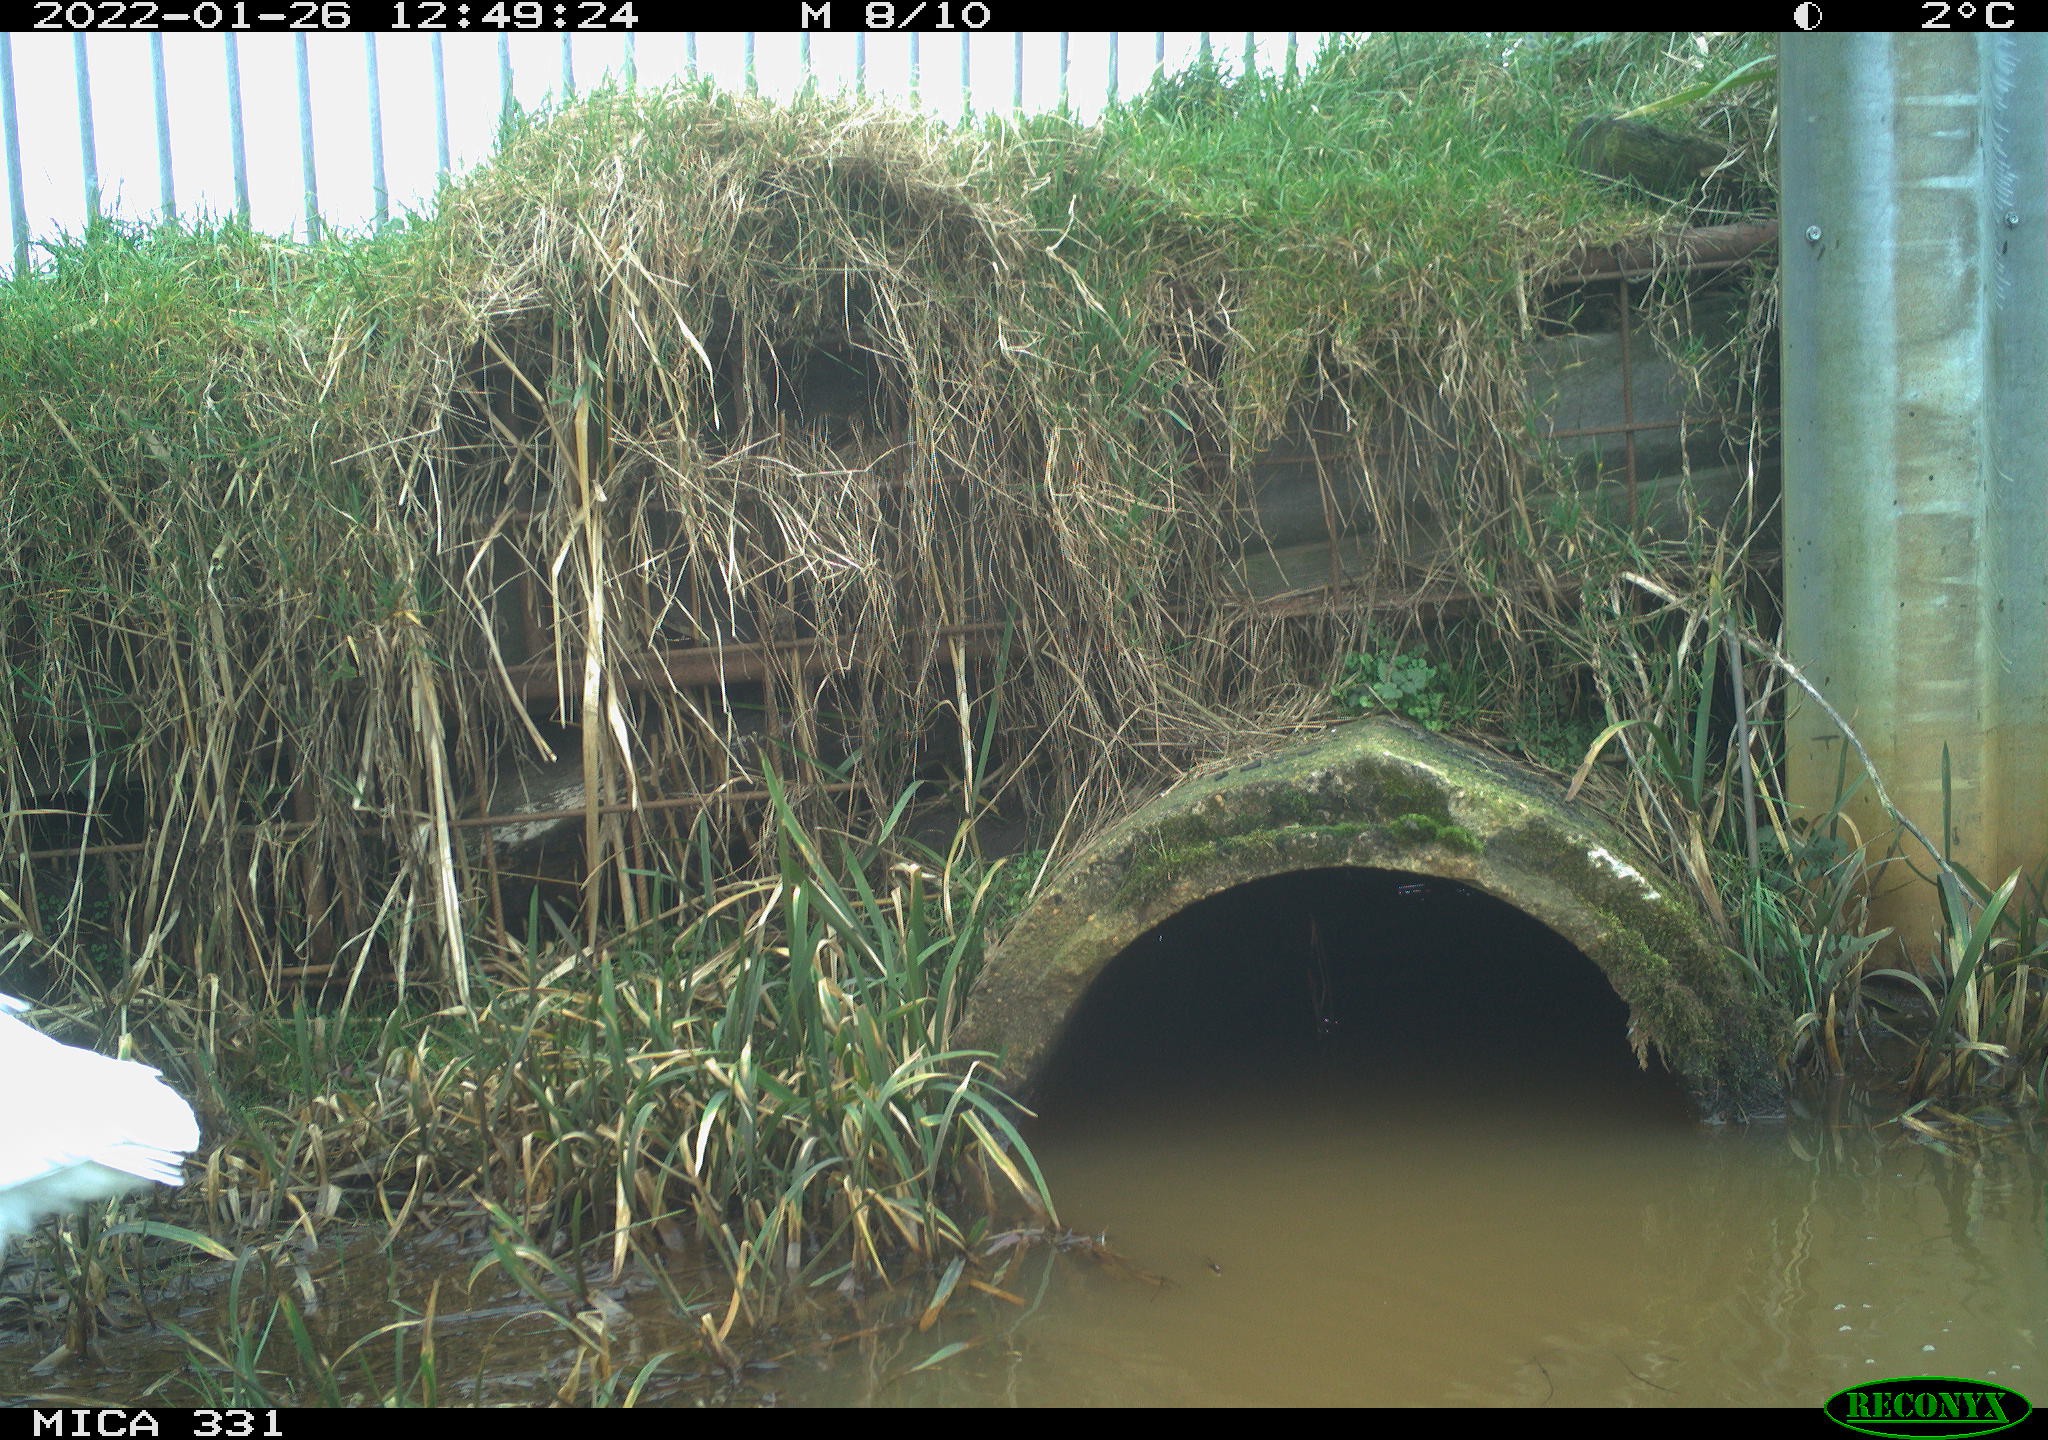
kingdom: Animalia
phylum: Chordata
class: Aves
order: Pelecaniformes
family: Ardeidae
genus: Ardea
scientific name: Ardea alba
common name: Great egret
